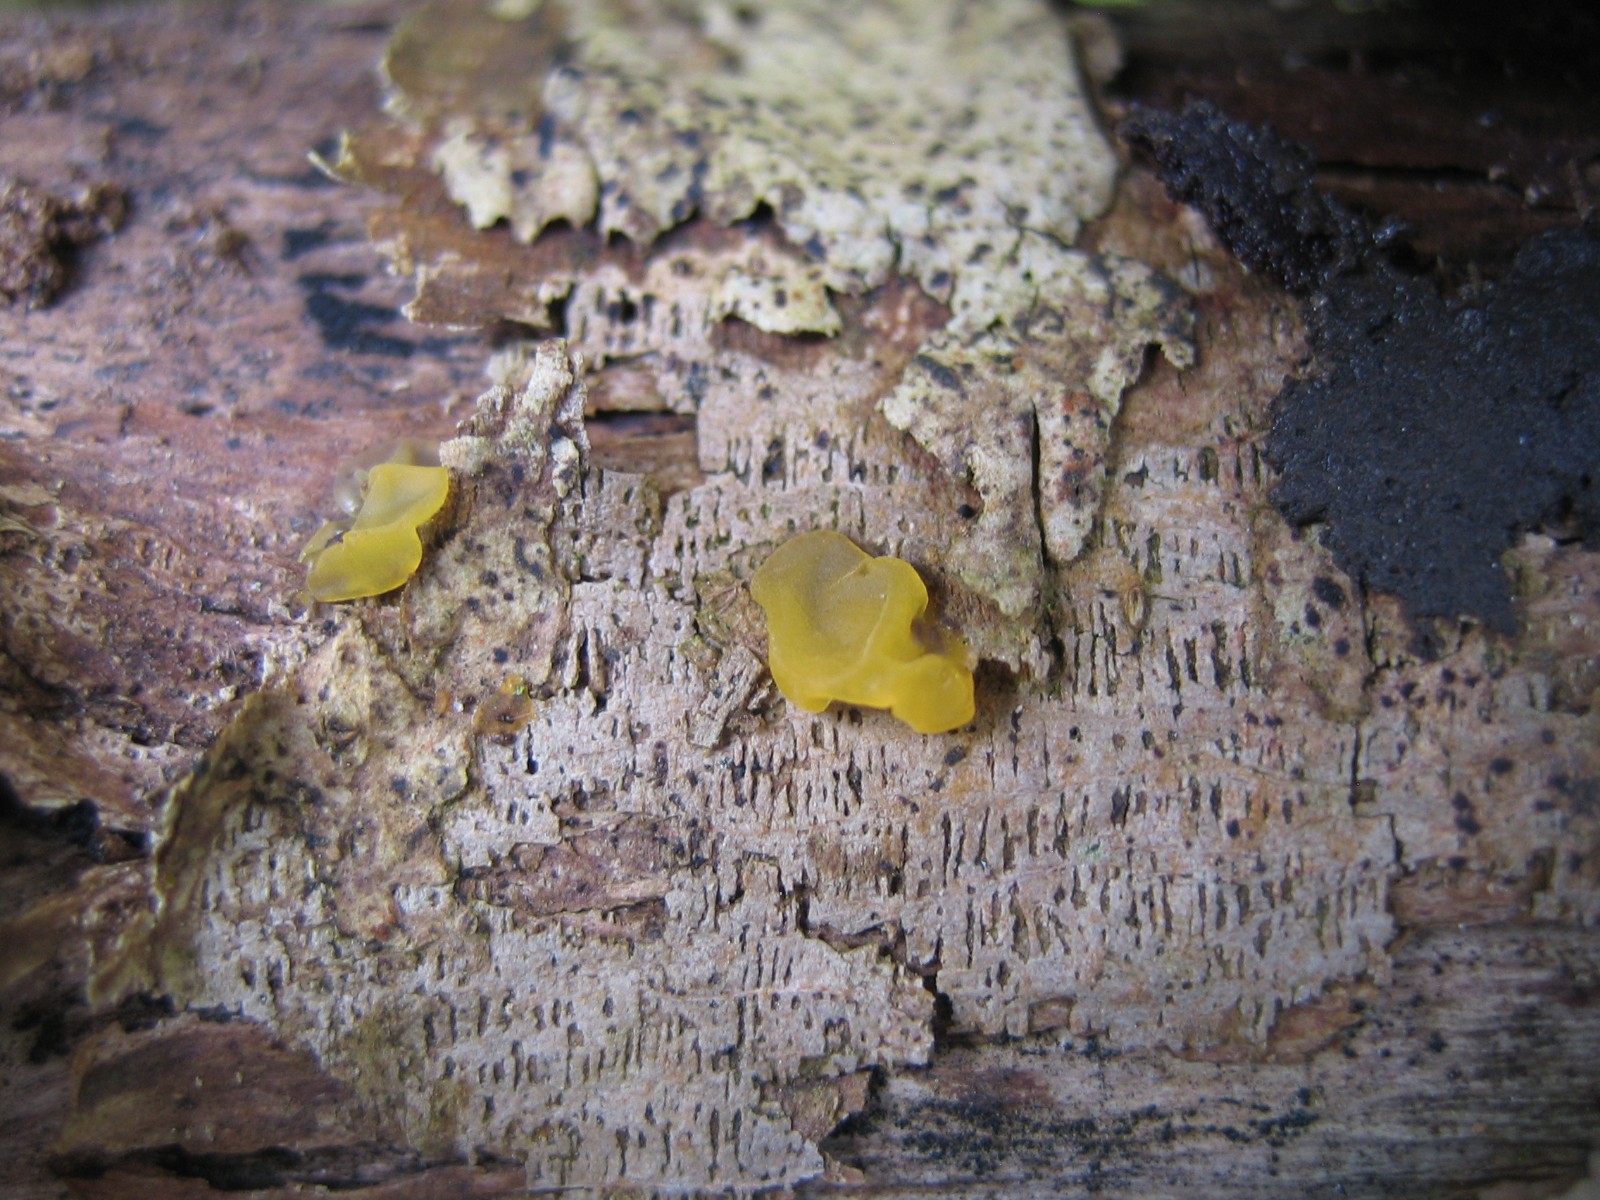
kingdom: Fungi
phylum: Basidiomycota
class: Dacrymycetes
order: Dacrymycetales
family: Dacrymycetaceae
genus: Dacrymyces
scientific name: Dacrymyces lacrymalis
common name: rynket tåresvamp
